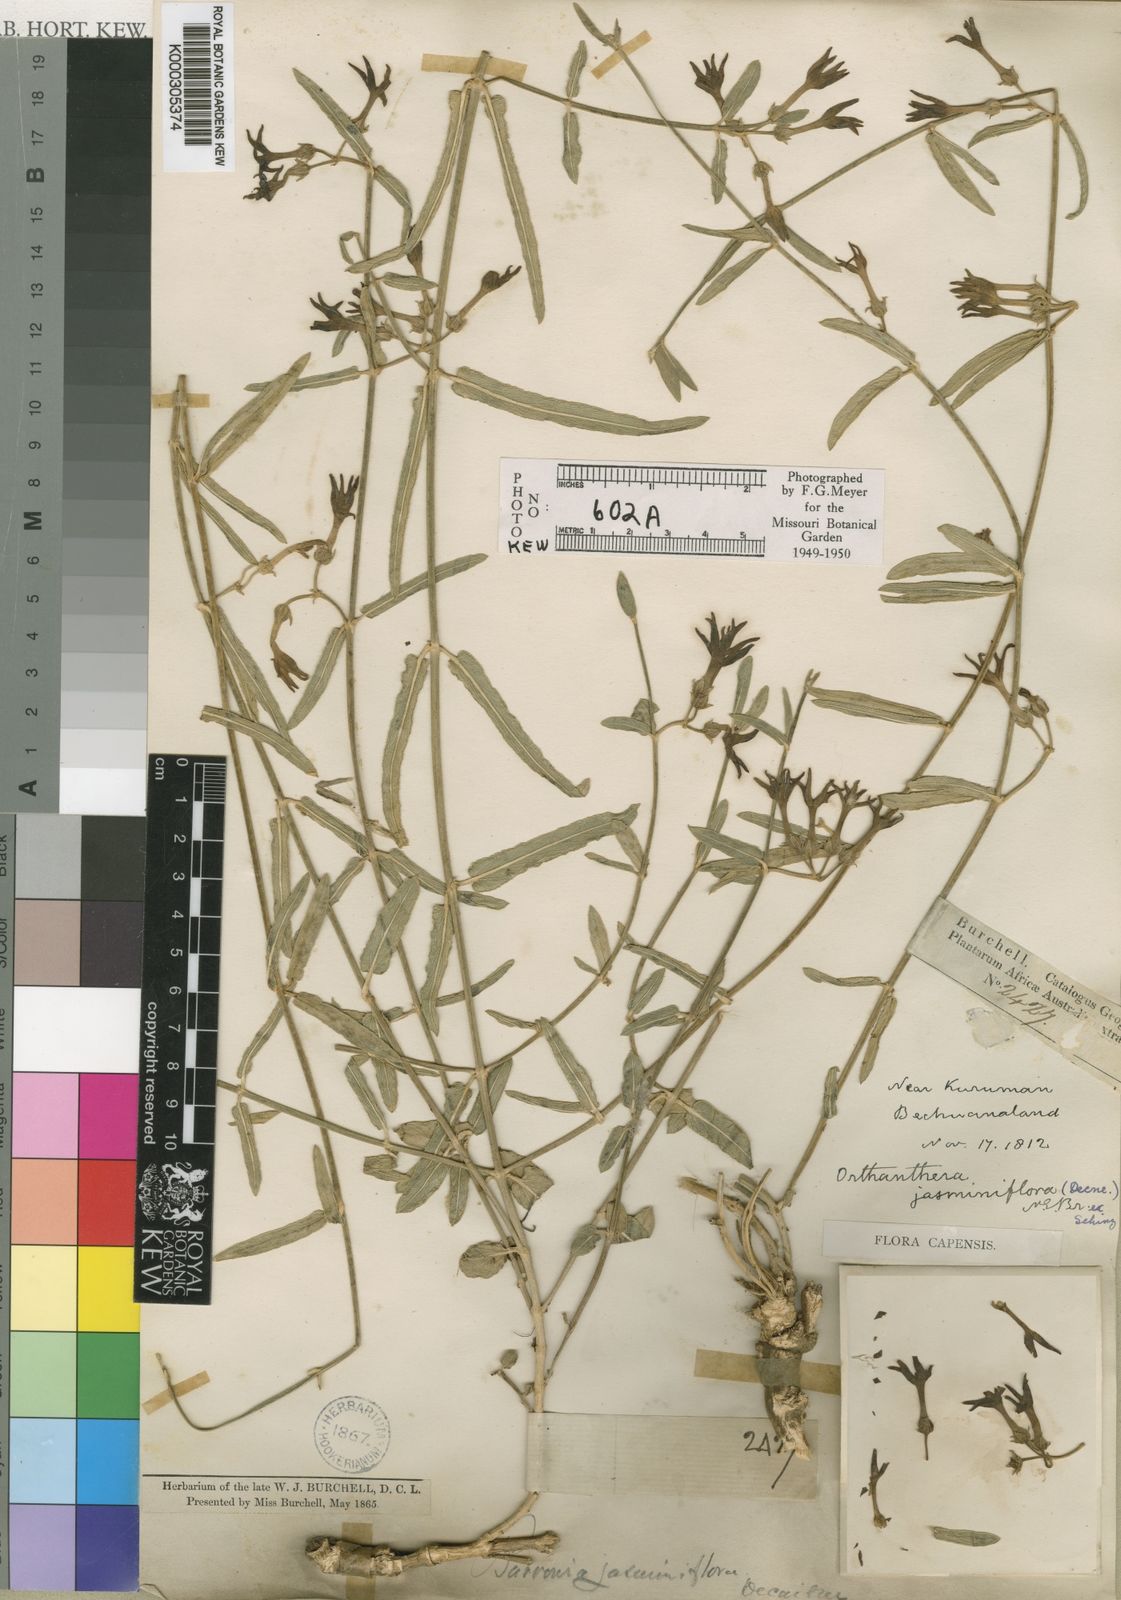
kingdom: Plantae
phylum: Tracheophyta
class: Magnoliopsida
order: Gentianales
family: Apocynaceae
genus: Orthanthera
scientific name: Orthanthera jasminiflora
